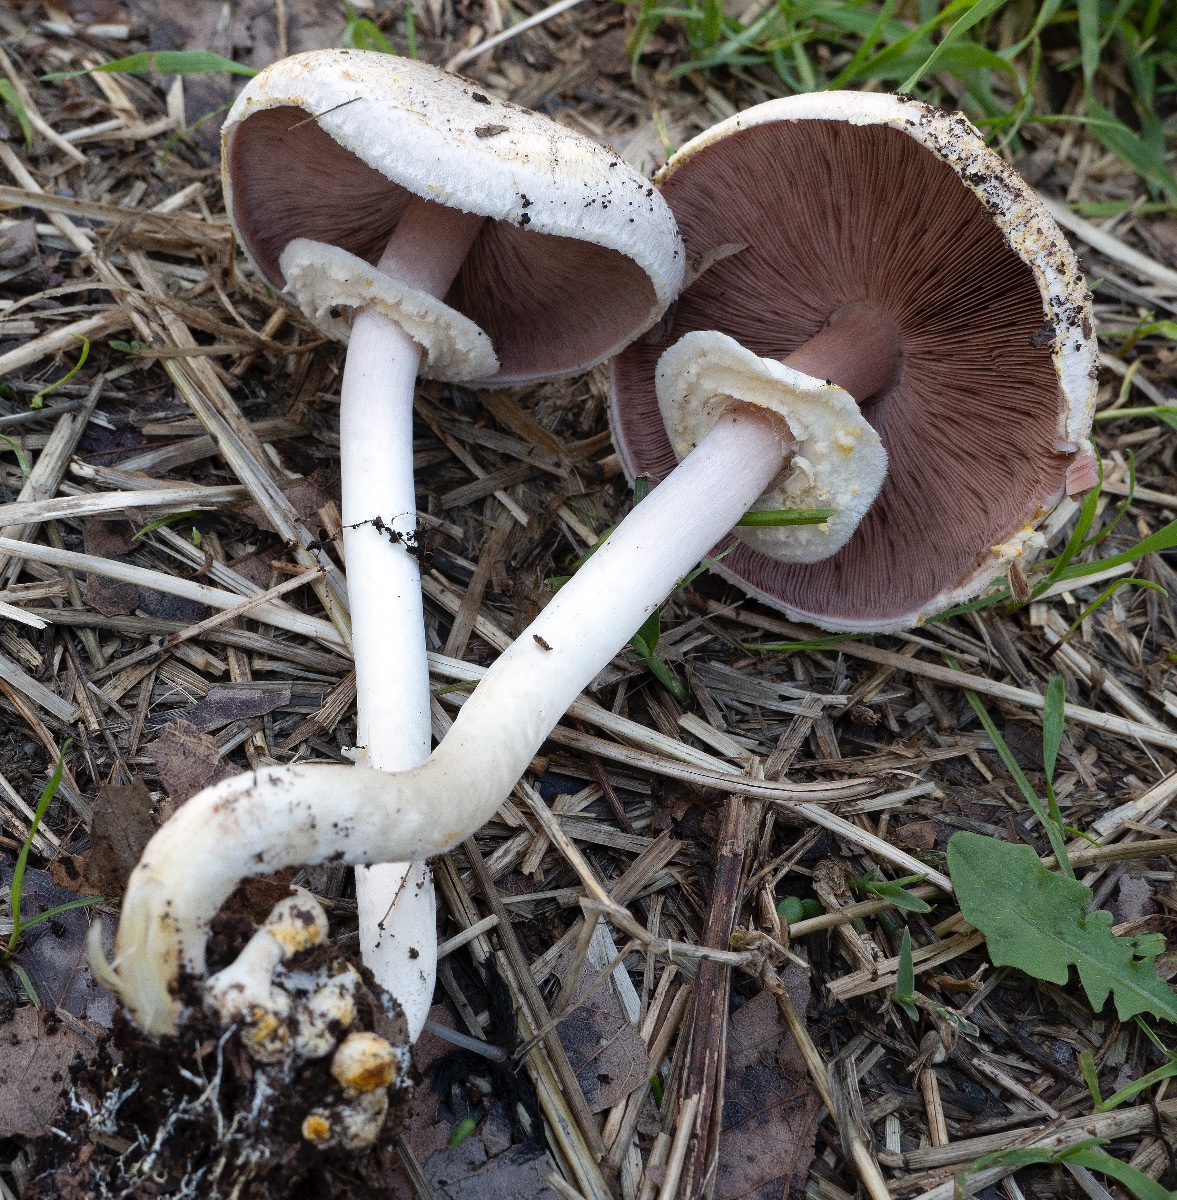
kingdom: Fungi
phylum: Basidiomycota
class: Agaricomycetes
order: Agaricales
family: Agaricaceae
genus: Agaricus
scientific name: Agaricus
